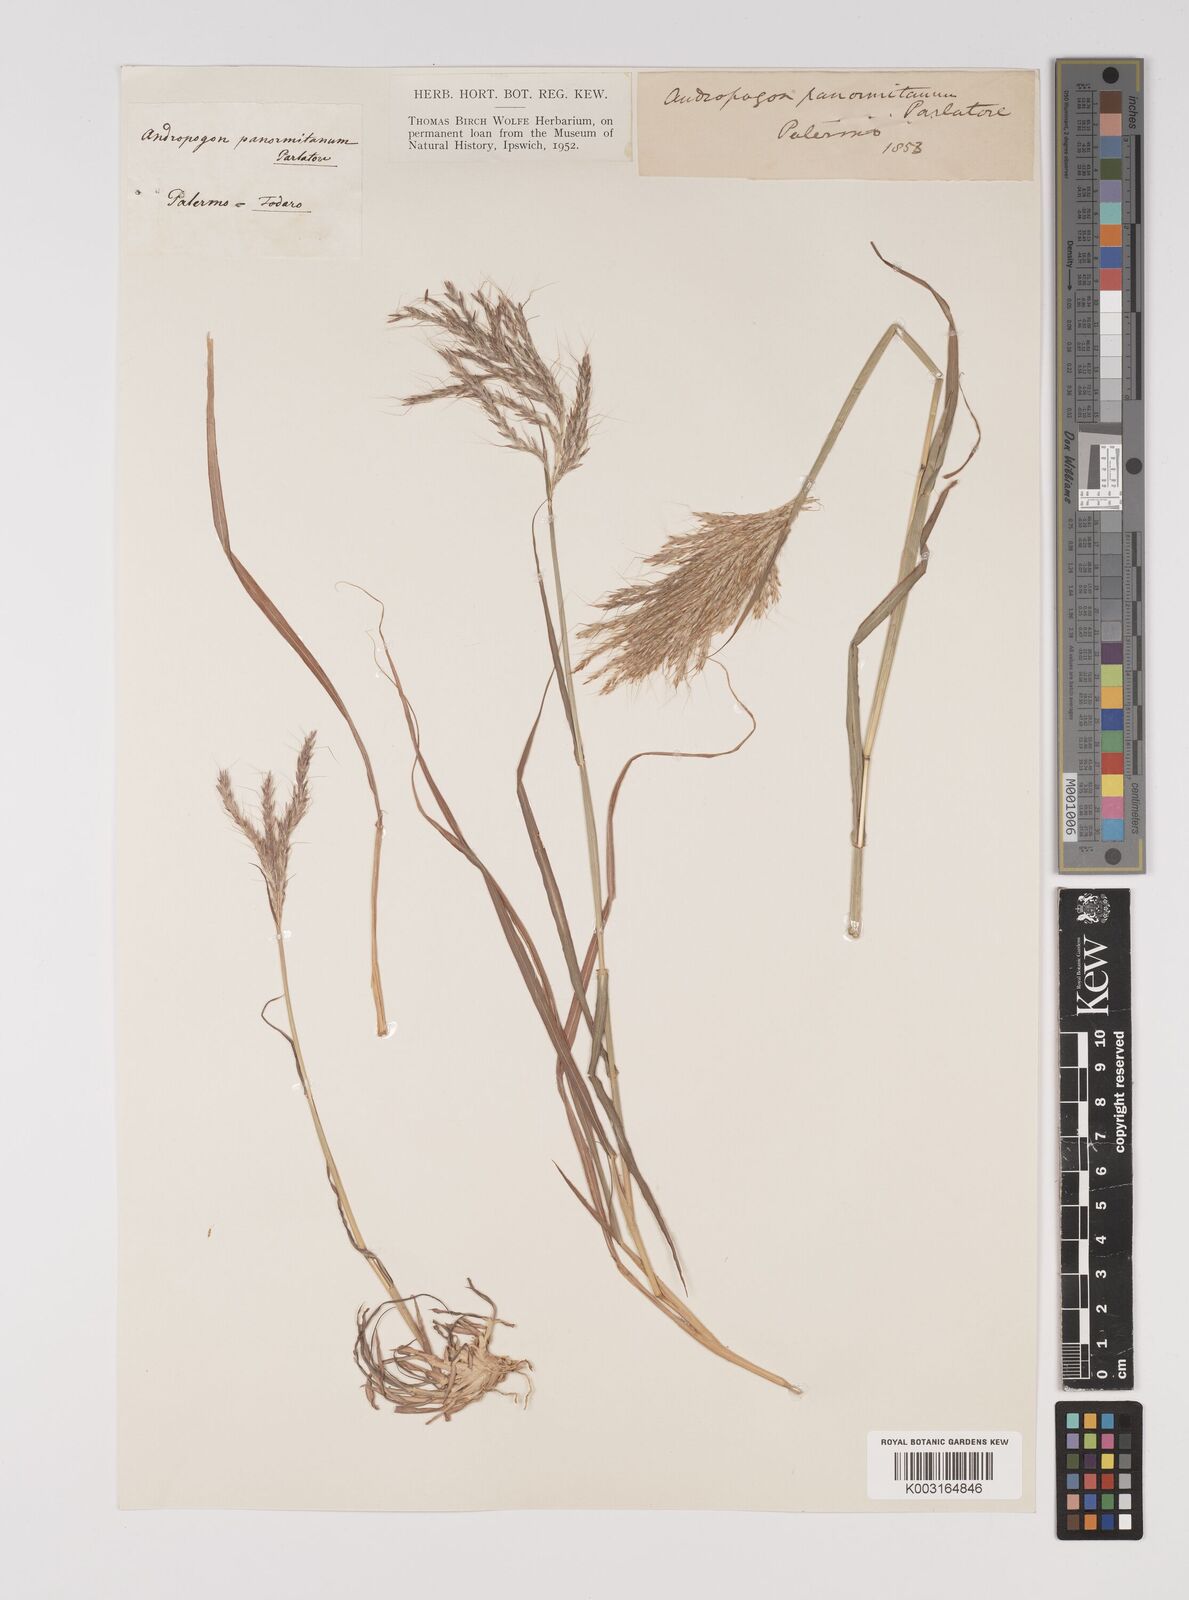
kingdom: Plantae
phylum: Tracheophyta
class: Liliopsida
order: Poales
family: Poaceae
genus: Bothriochloa
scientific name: Bothriochloa insculpta
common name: Creeping-bluegrass
